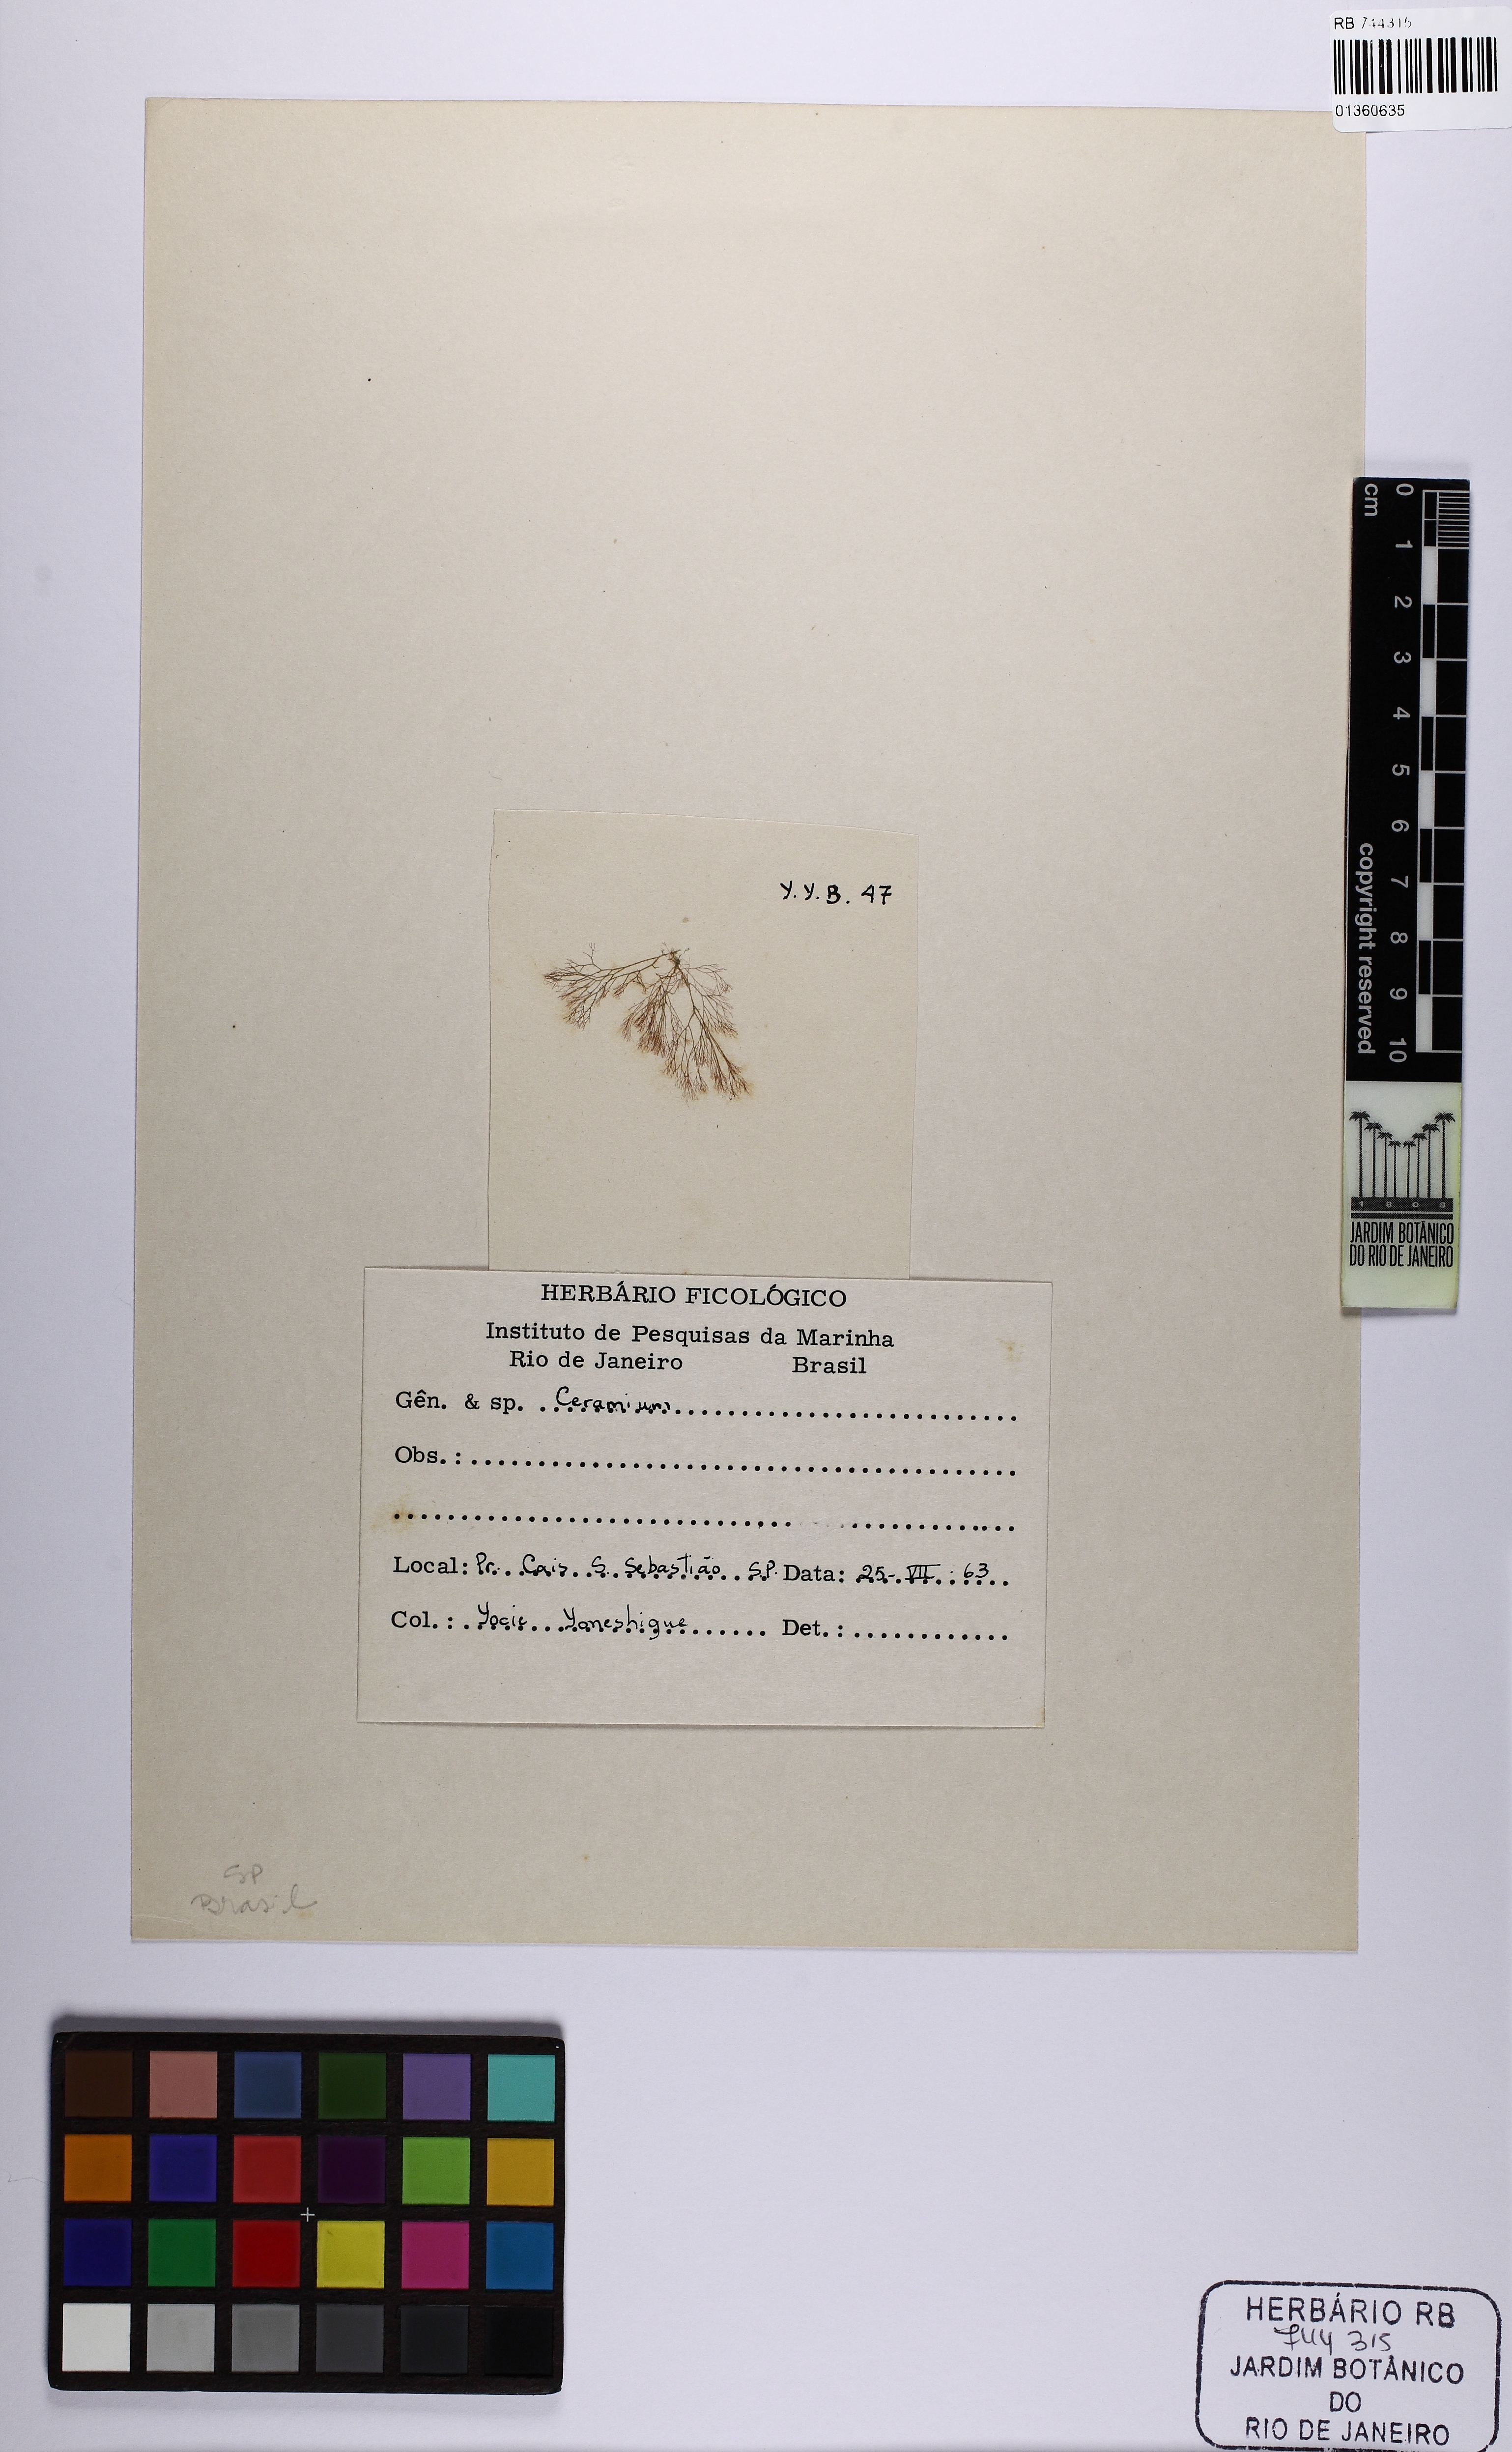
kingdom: Plantae
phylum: Rhodophyta
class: Florideophyceae
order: Ceramiales
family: Ceramiaceae
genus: Ceramium
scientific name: Ceramium
